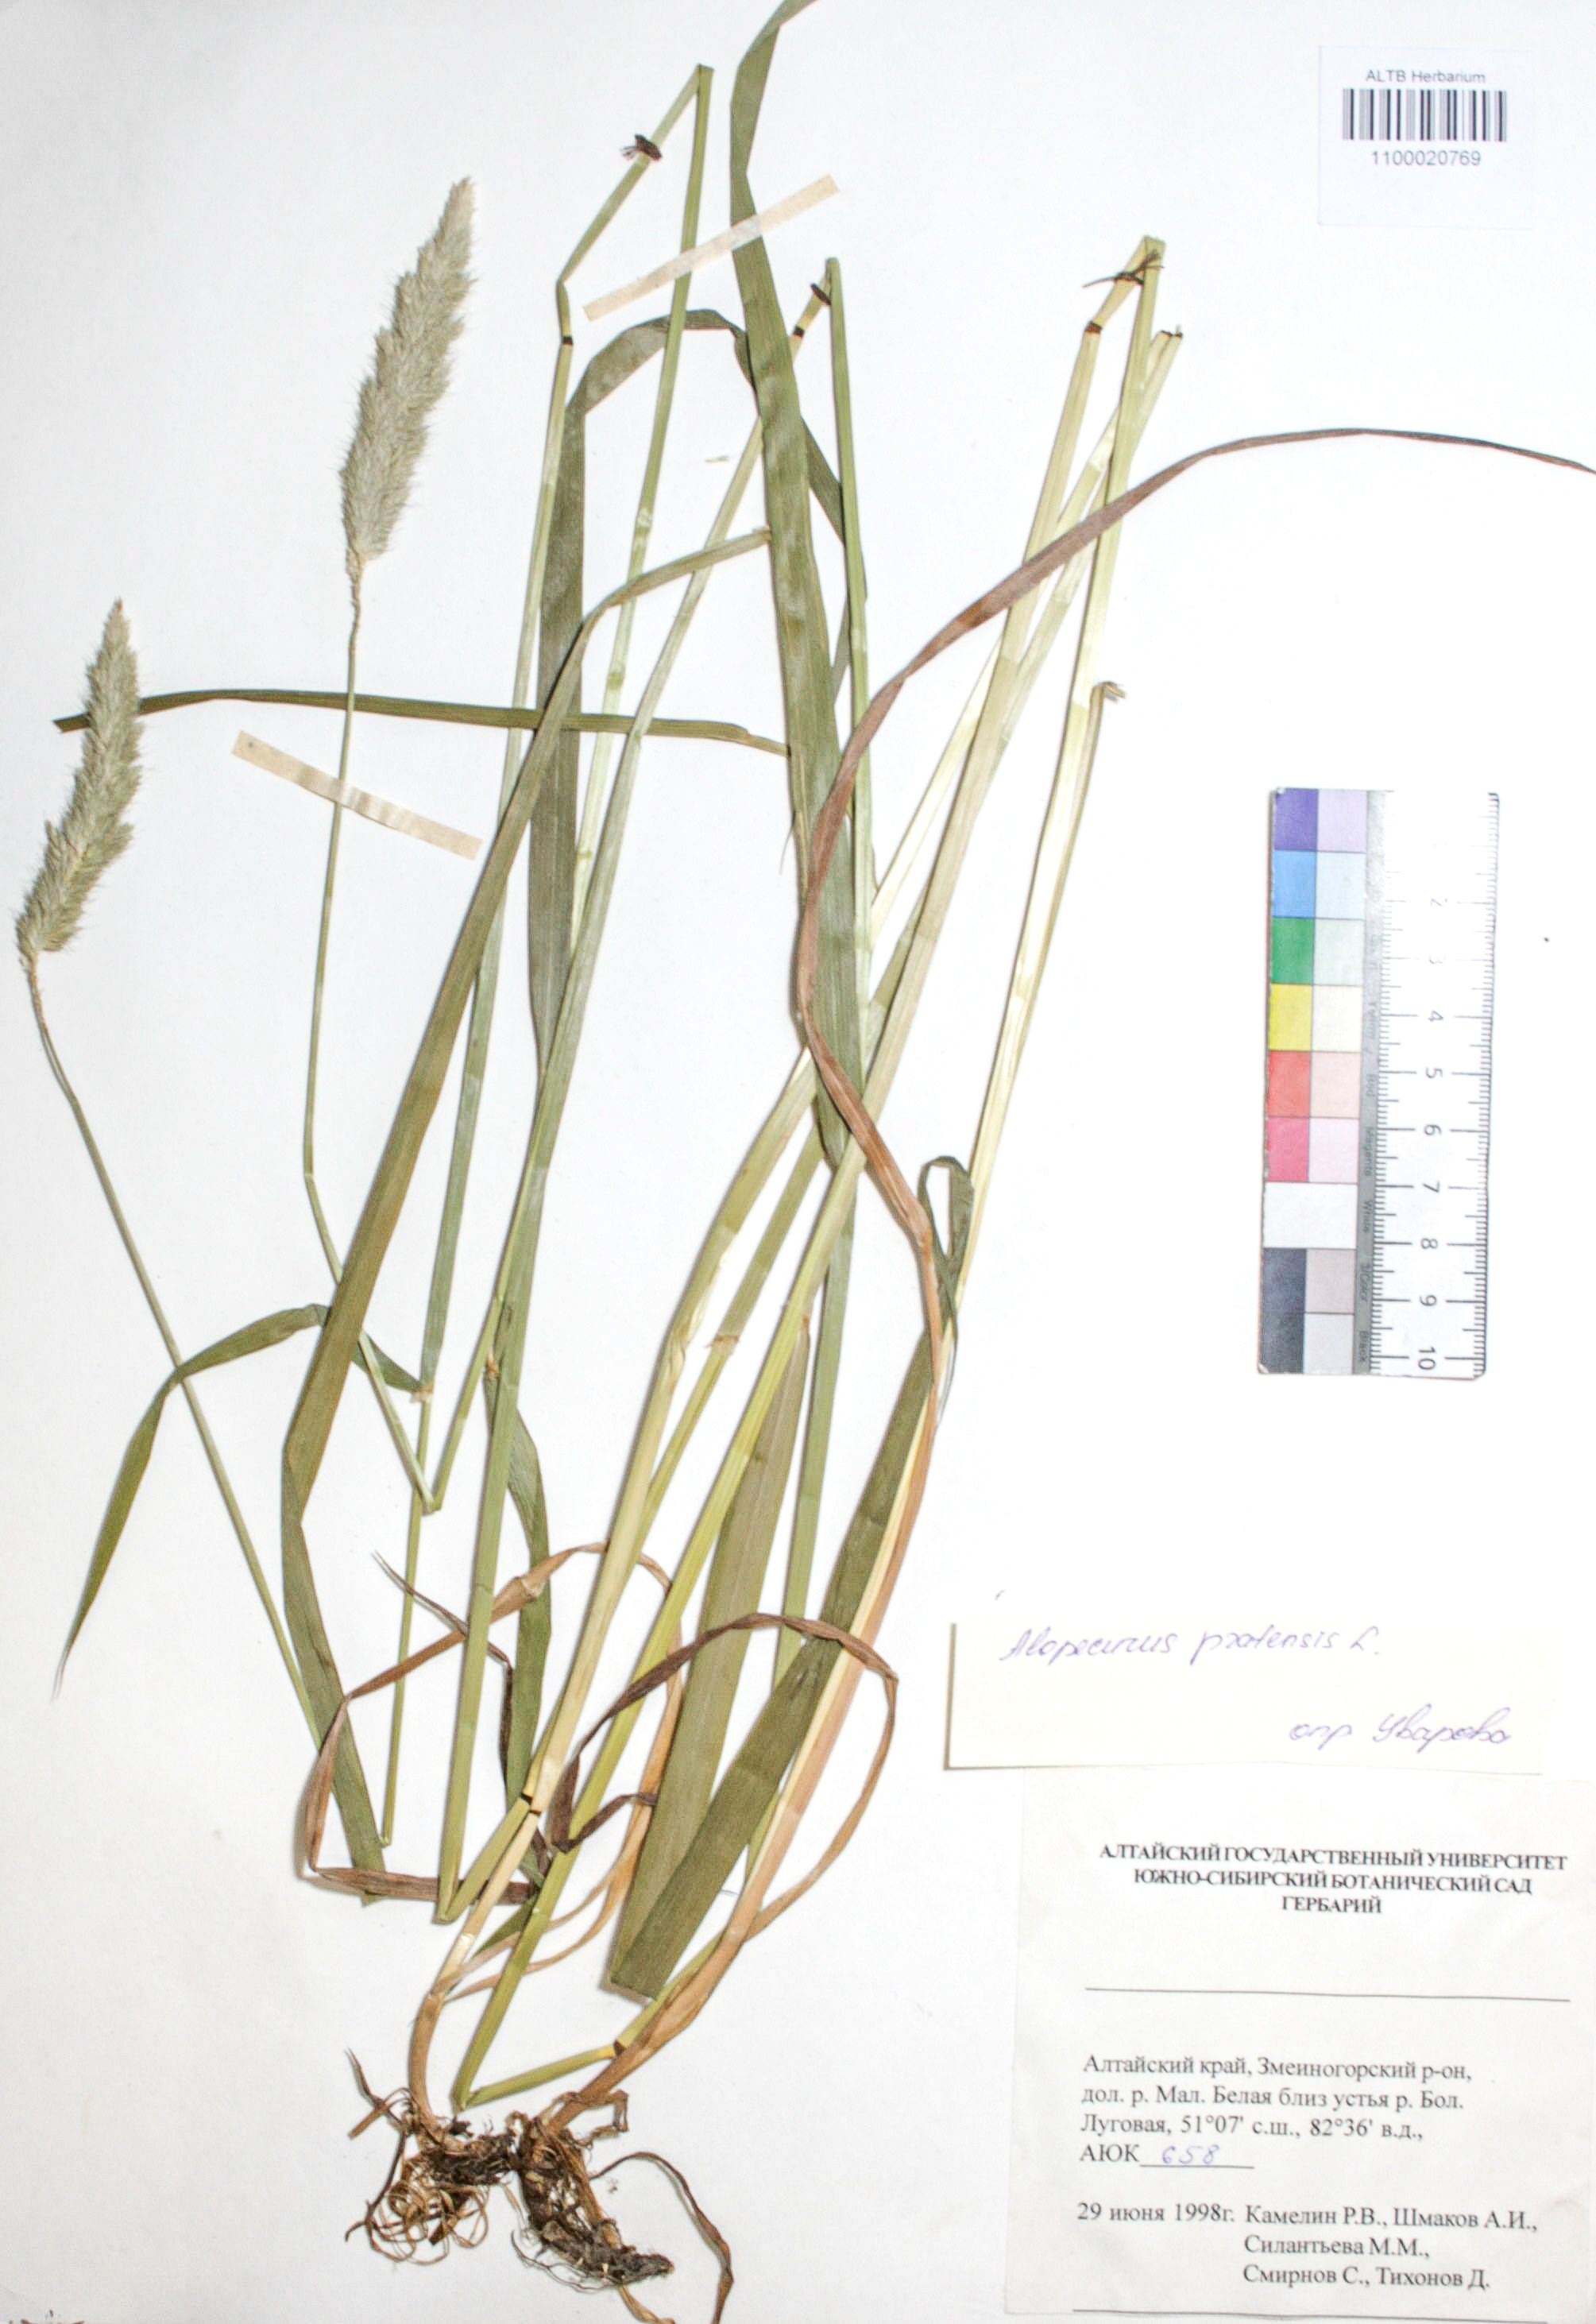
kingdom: Plantae
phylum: Tracheophyta
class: Liliopsida
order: Poales
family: Poaceae
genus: Alopecurus
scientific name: Alopecurus pratensis
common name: Meadow foxtail
